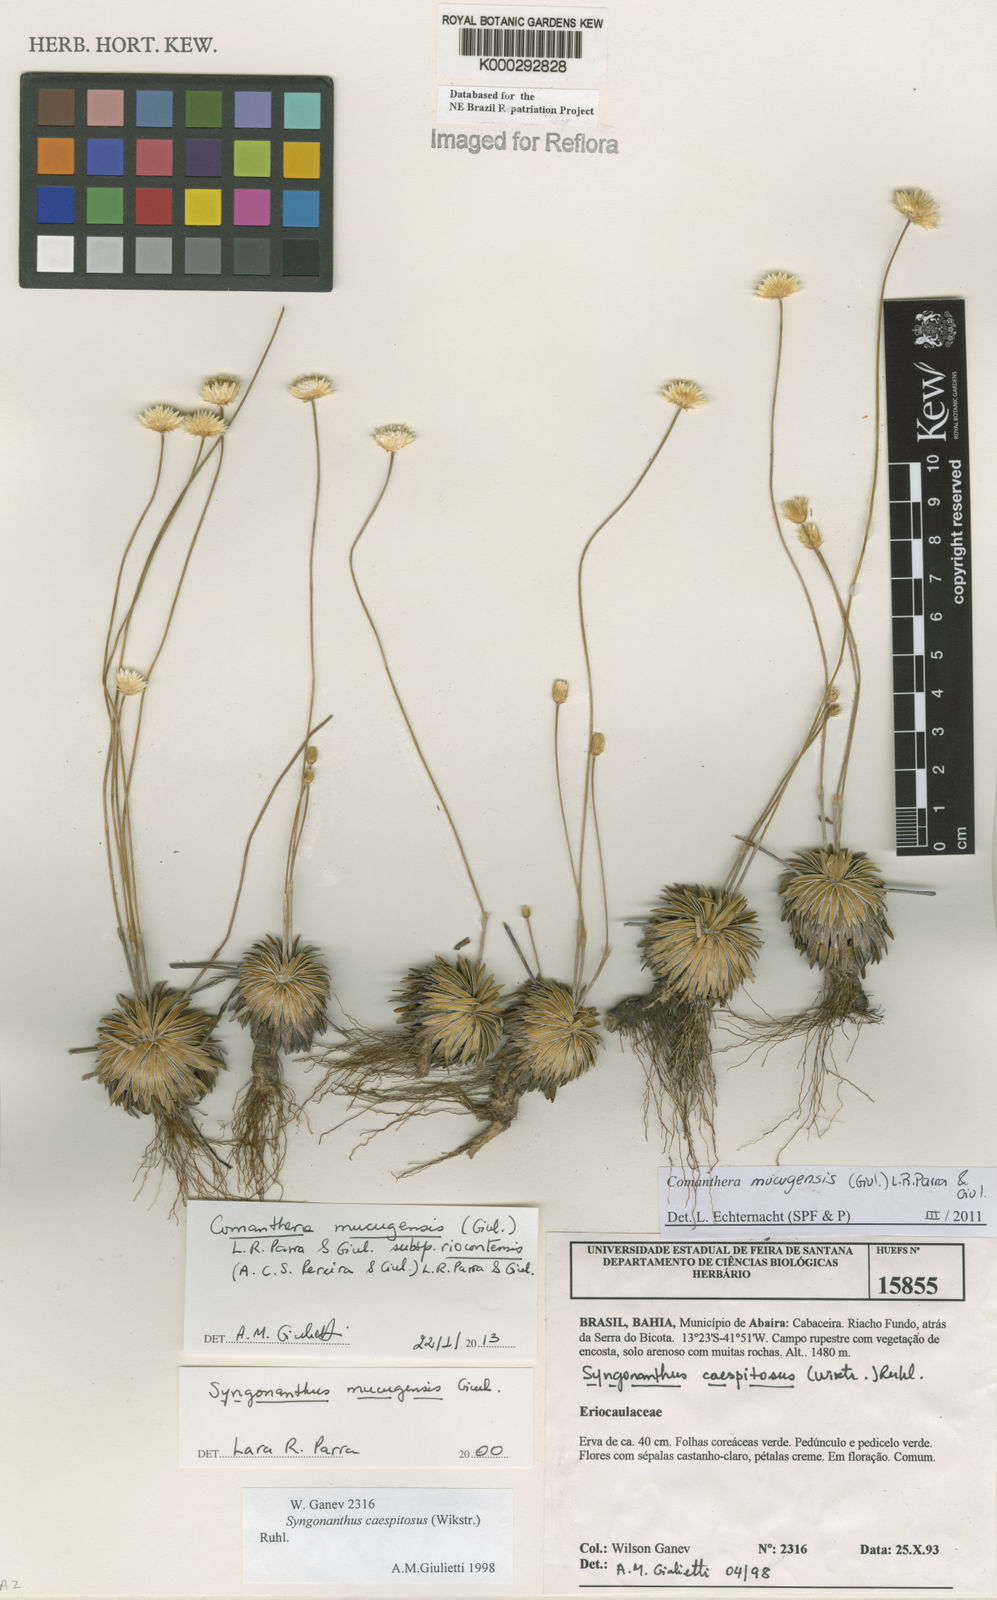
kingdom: Plantae
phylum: Tracheophyta
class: Liliopsida
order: Poales
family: Eriocaulaceae
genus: Comanthera
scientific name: Comanthera mucugensis
